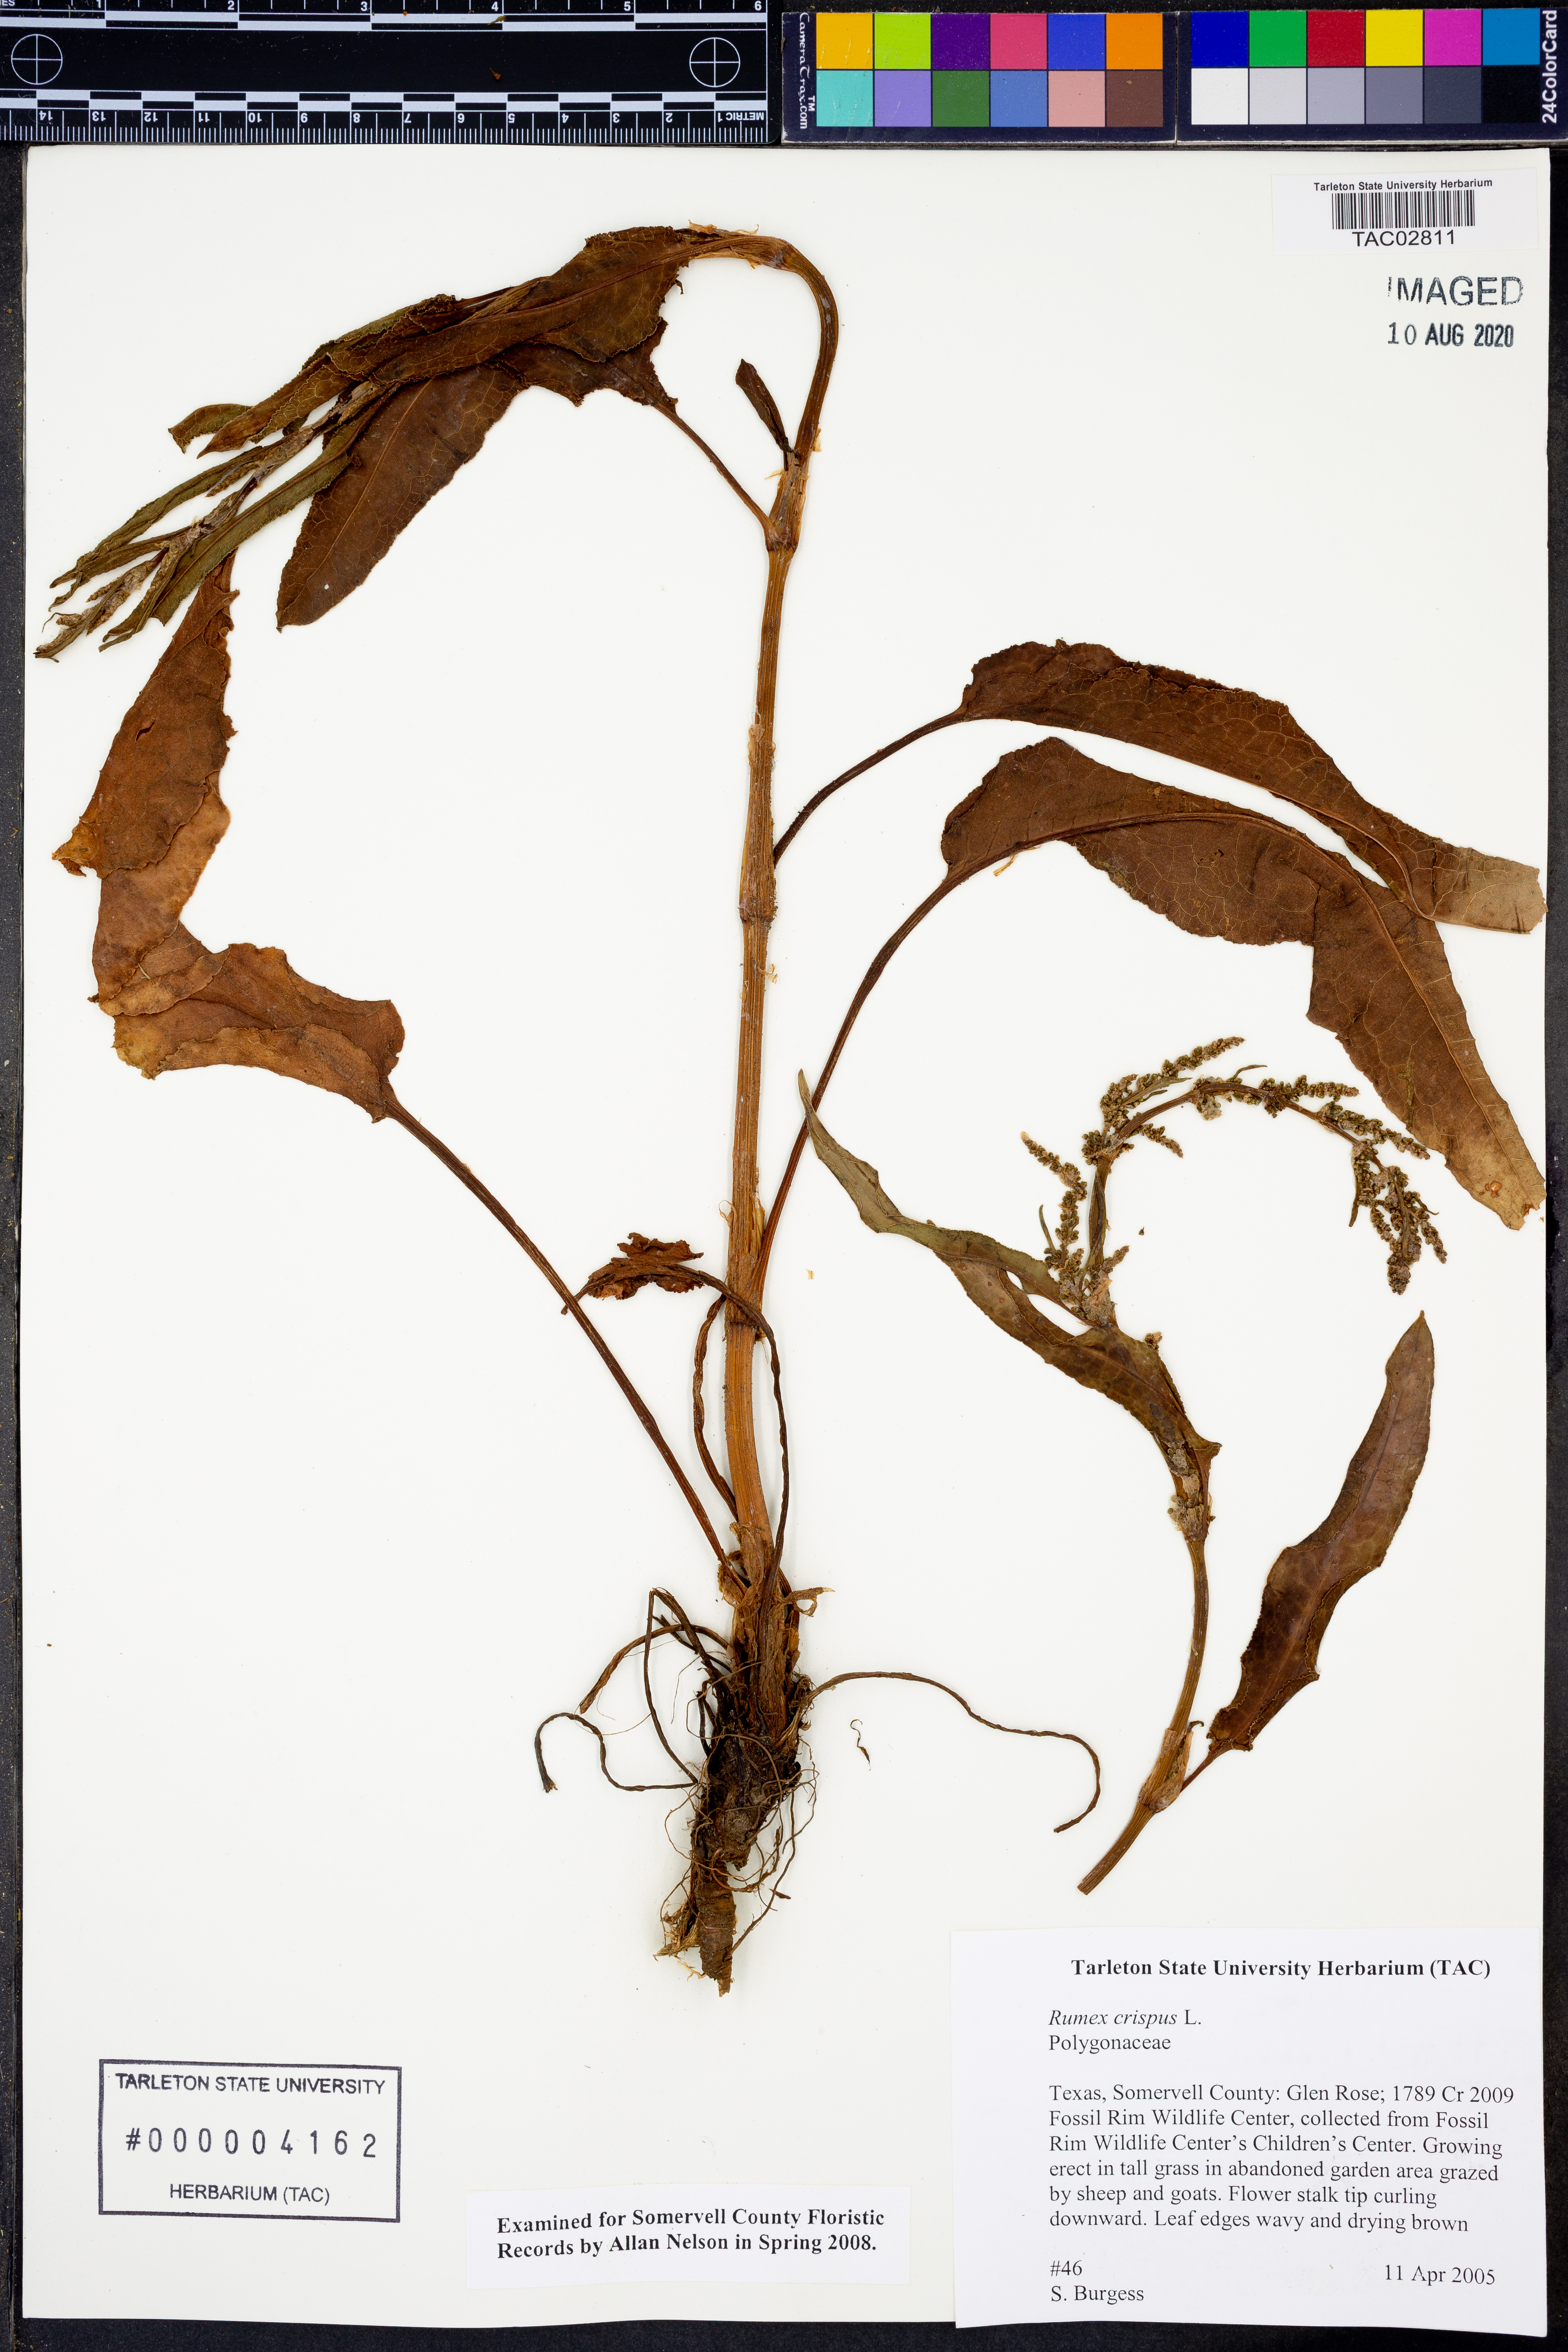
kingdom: Plantae
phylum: Tracheophyta
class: Magnoliopsida
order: Caryophyllales
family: Polygonaceae
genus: Rumex
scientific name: Rumex crispus
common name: Curled dock
